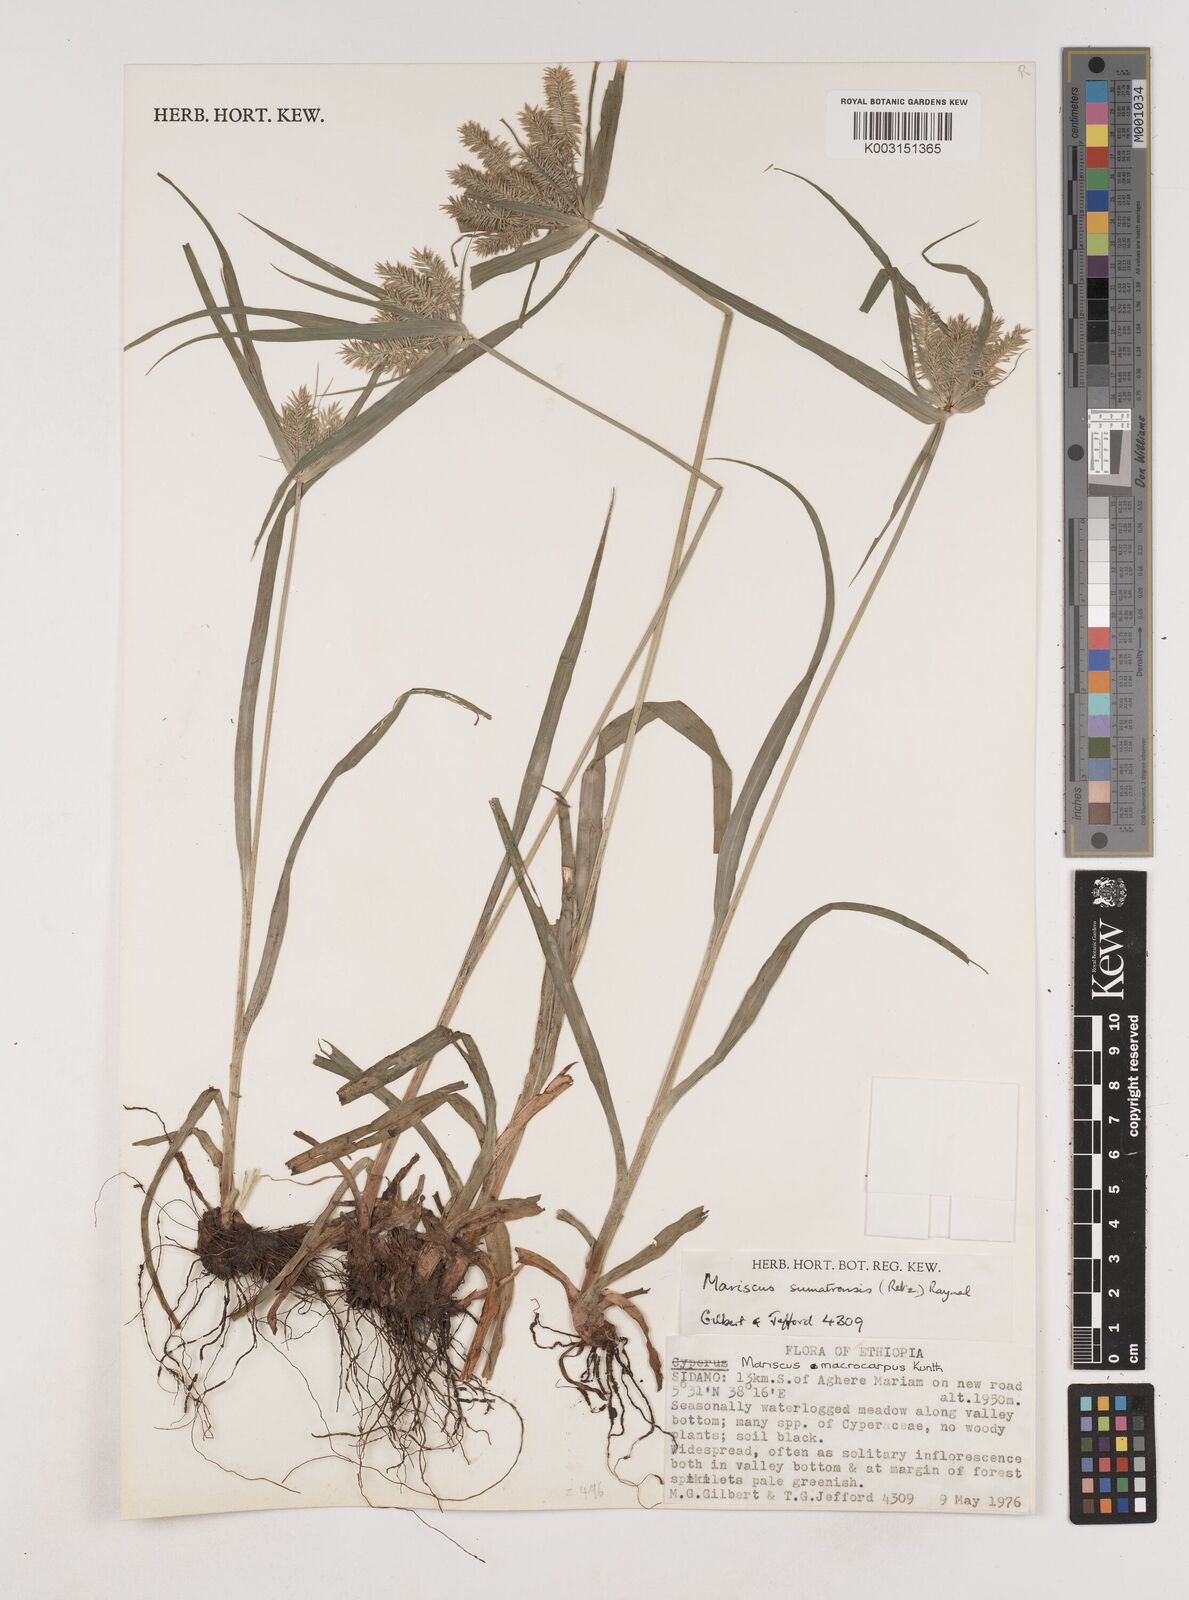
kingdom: Plantae
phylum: Tracheophyta
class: Liliopsida
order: Poales
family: Cyperaceae
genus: Cyperus
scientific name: Cyperus cyperoides
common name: Pacific island flat sedge
